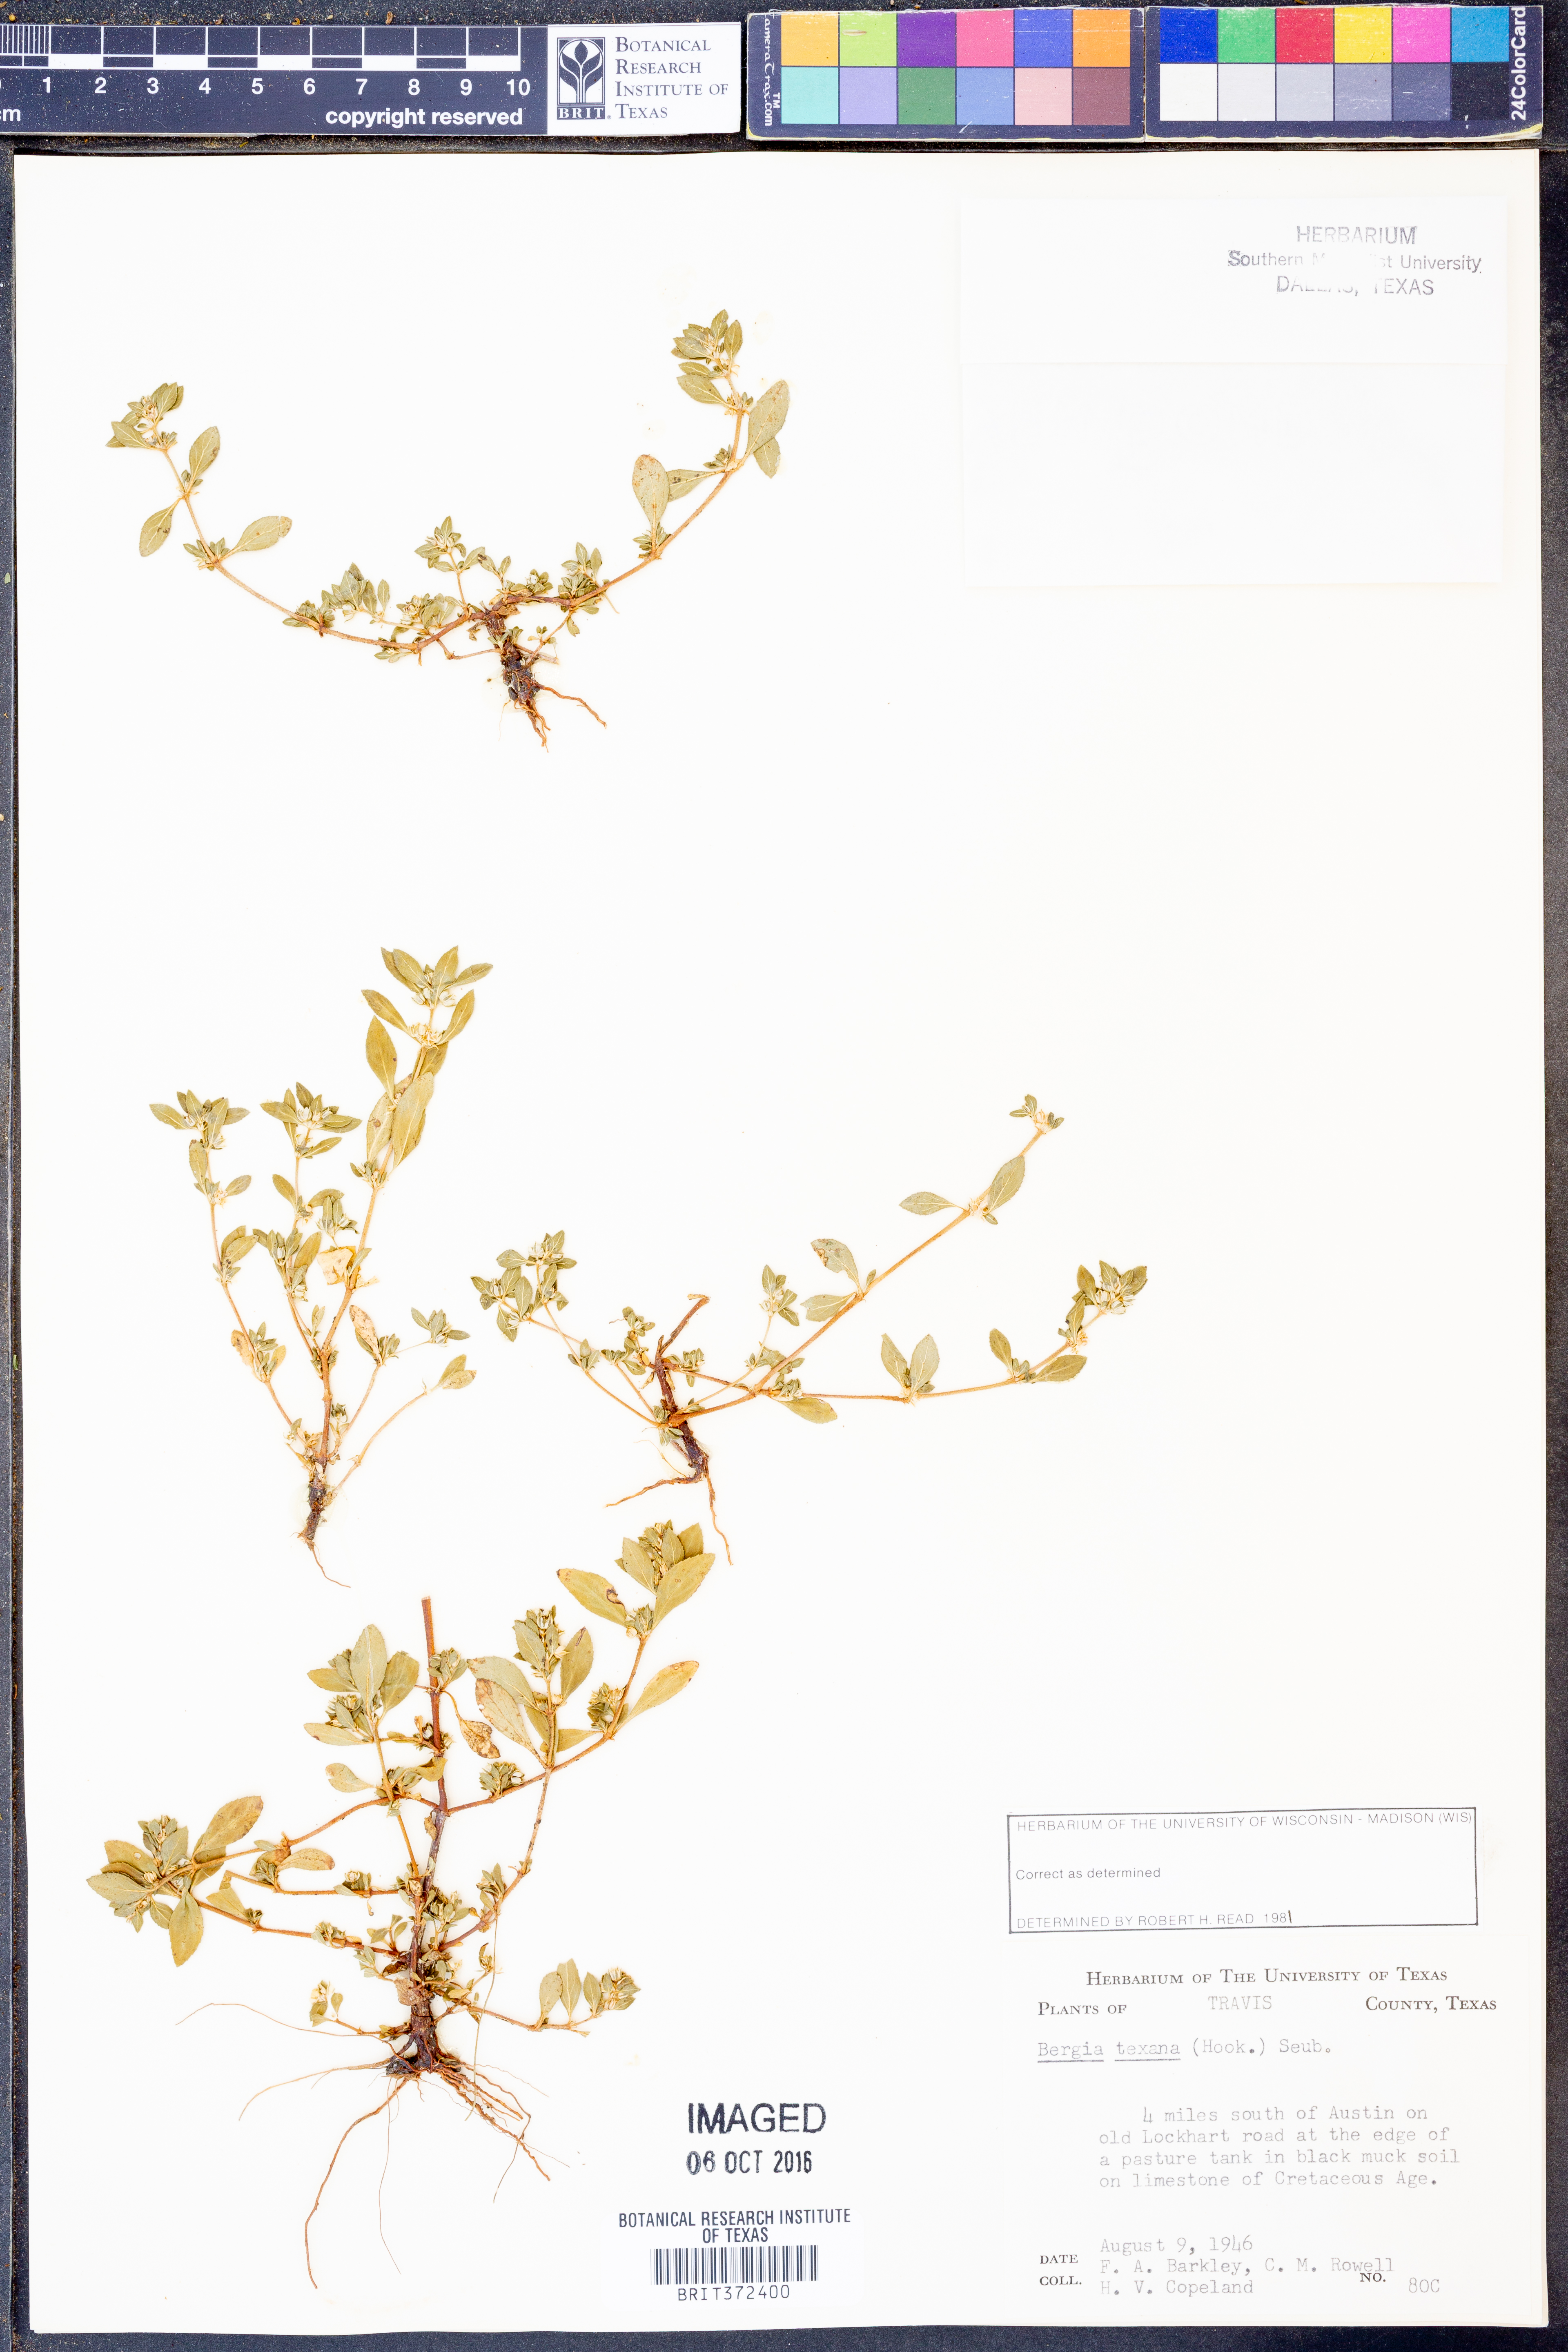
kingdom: Plantae
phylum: Tracheophyta
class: Magnoliopsida
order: Malpighiales
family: Elatinaceae
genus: Bergia
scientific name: Bergia texana
